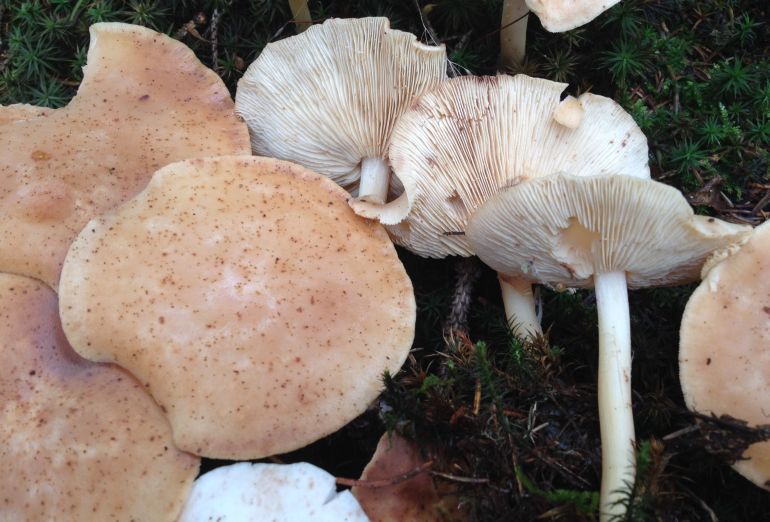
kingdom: Fungi
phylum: Basidiomycota
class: Agaricomycetes
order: Agaricales
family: Omphalotaceae
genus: Rhodocollybia
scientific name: Rhodocollybia maculata
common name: plettet fladhat
